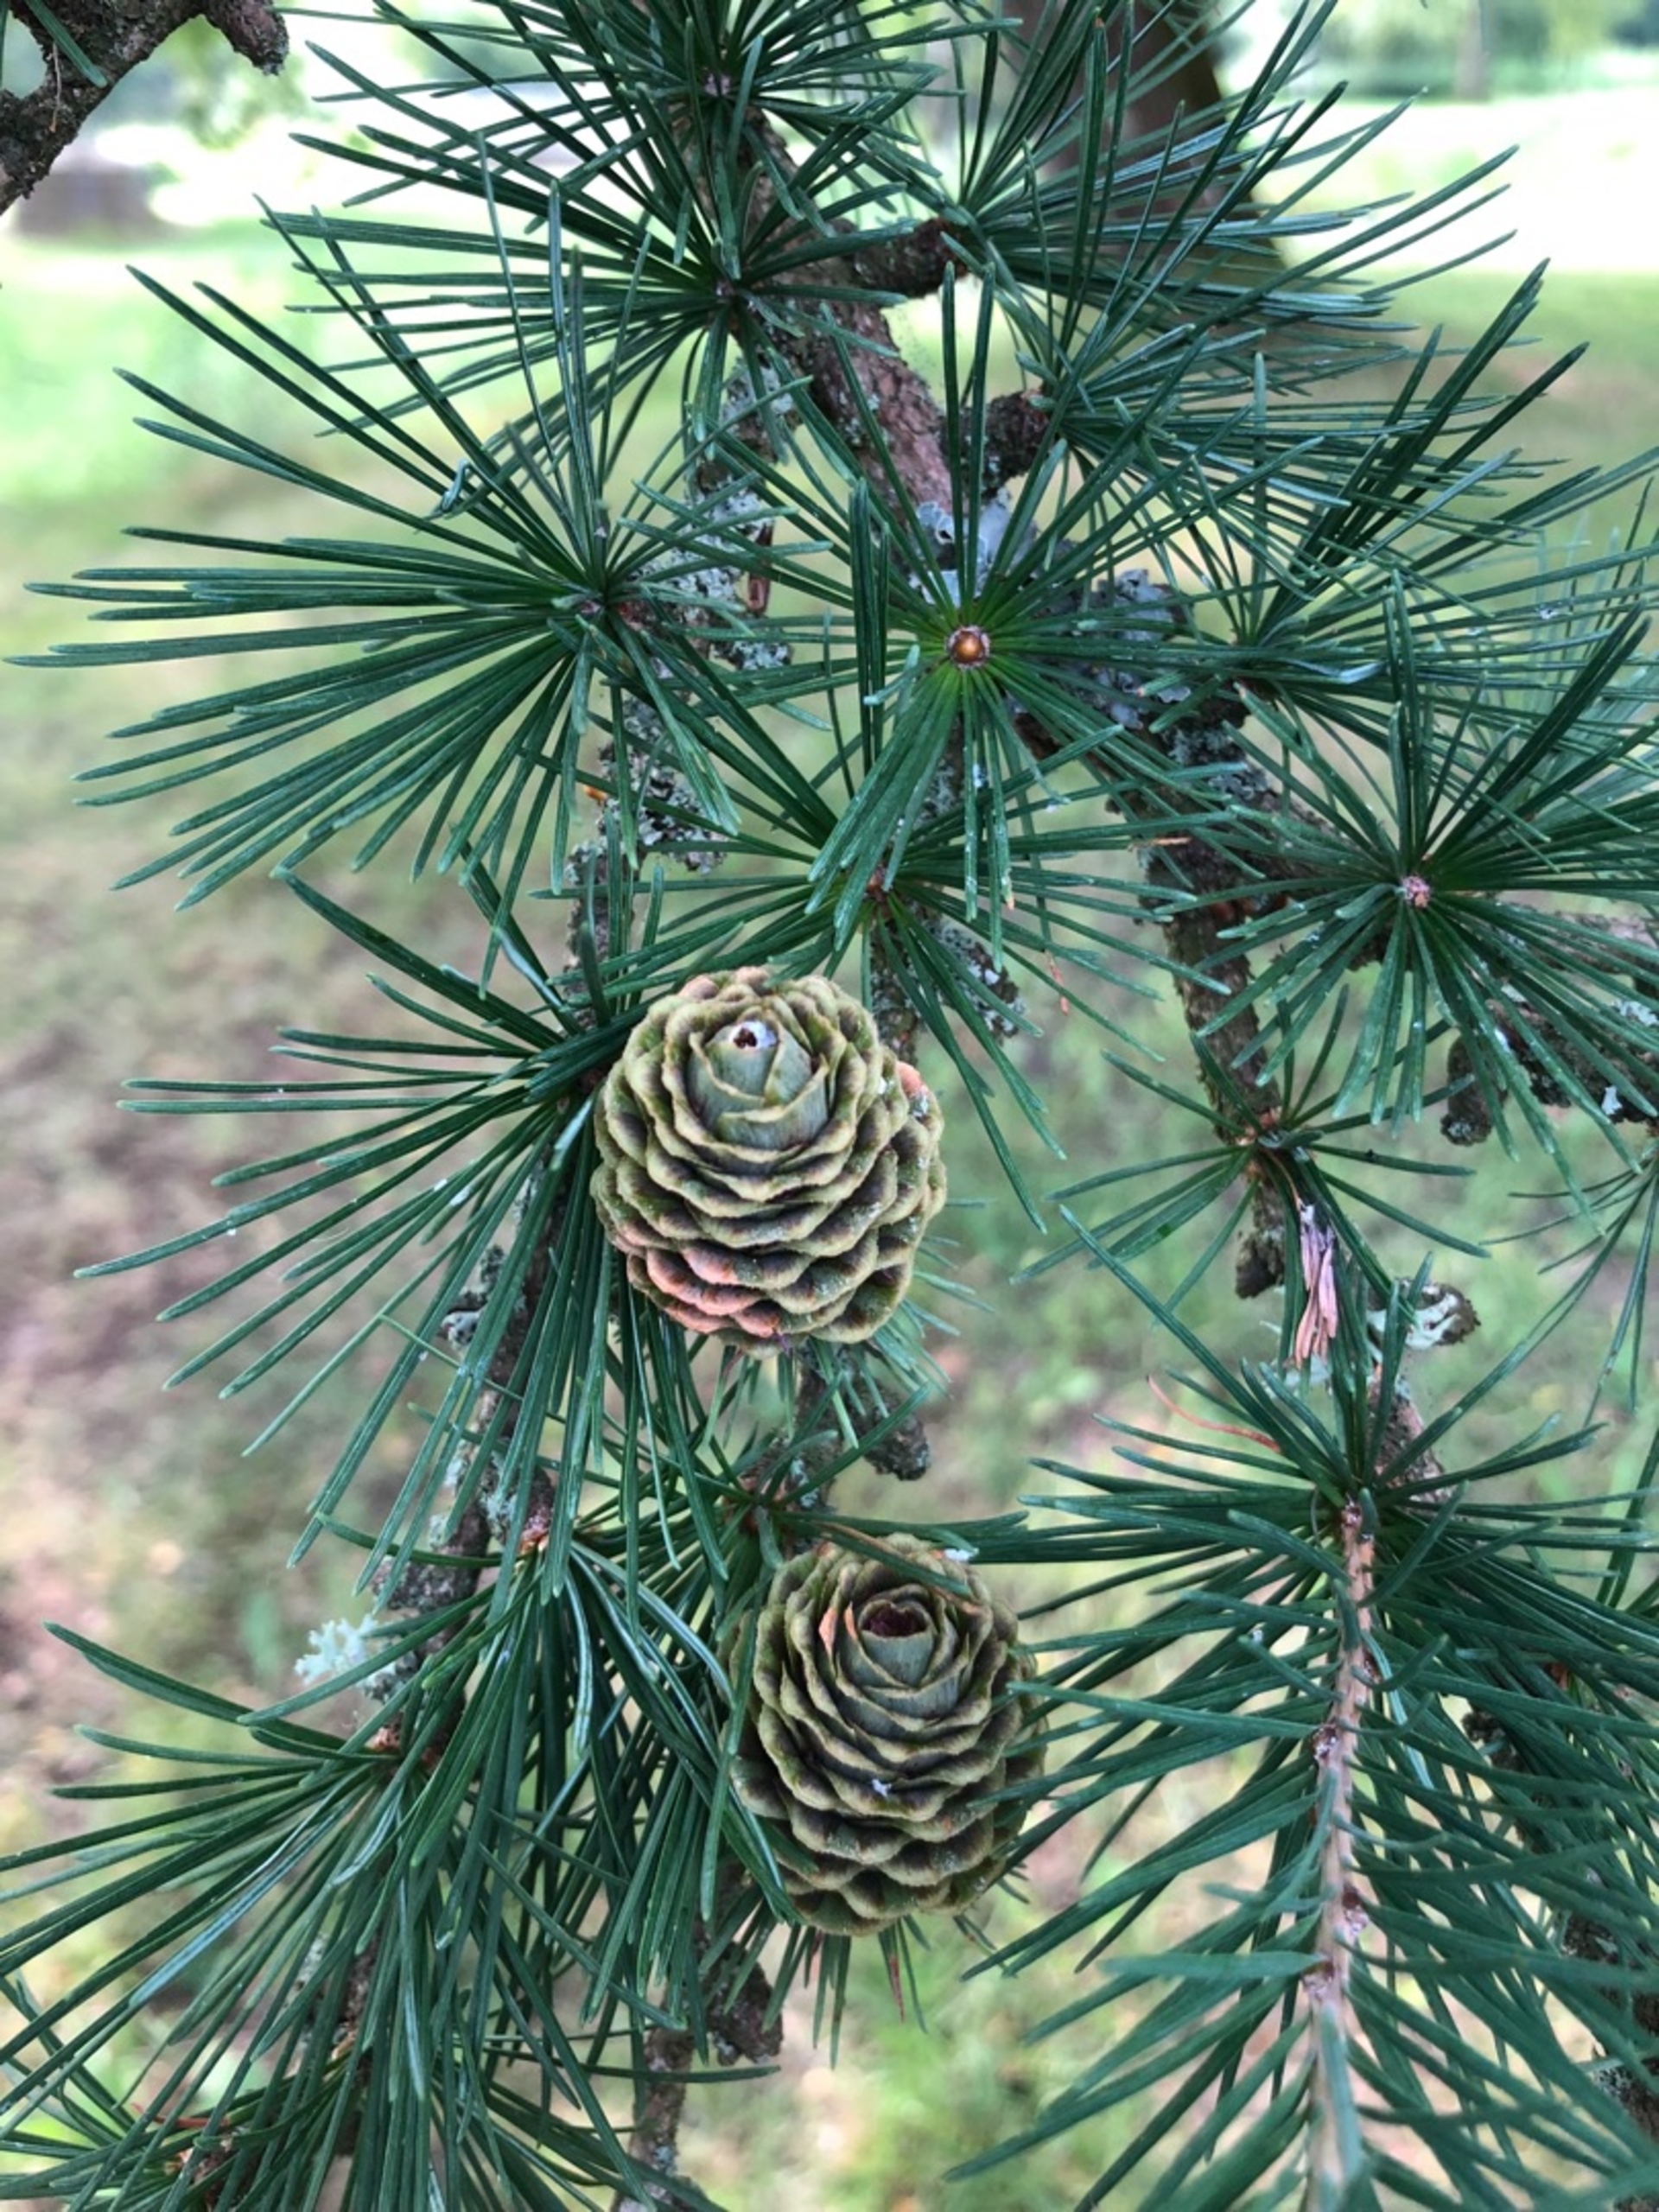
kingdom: Plantae
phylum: Tracheophyta
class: Pinopsida
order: Pinales
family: Pinaceae
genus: Larix
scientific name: Larix marschlinsii
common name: Hybrid-lærk
